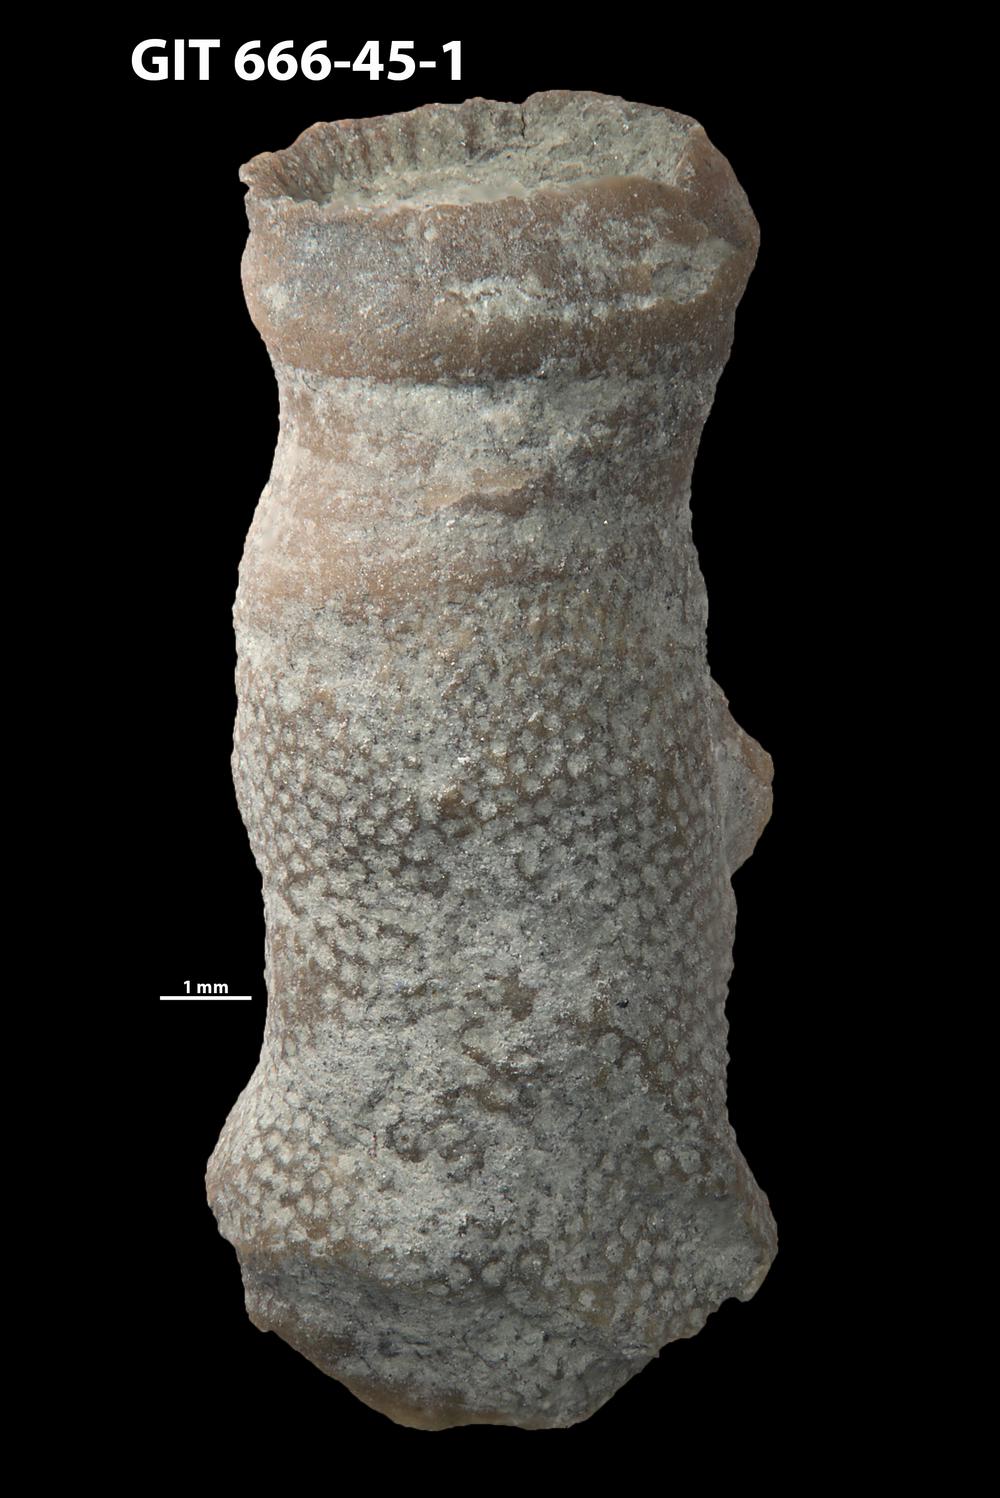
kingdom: Animalia
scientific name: Animalia
